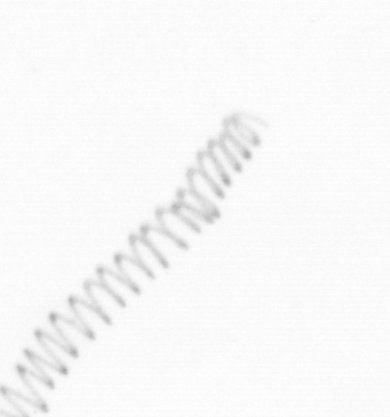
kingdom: Chromista
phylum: Ochrophyta
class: Bacillariophyceae
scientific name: Bacillariophyceae
